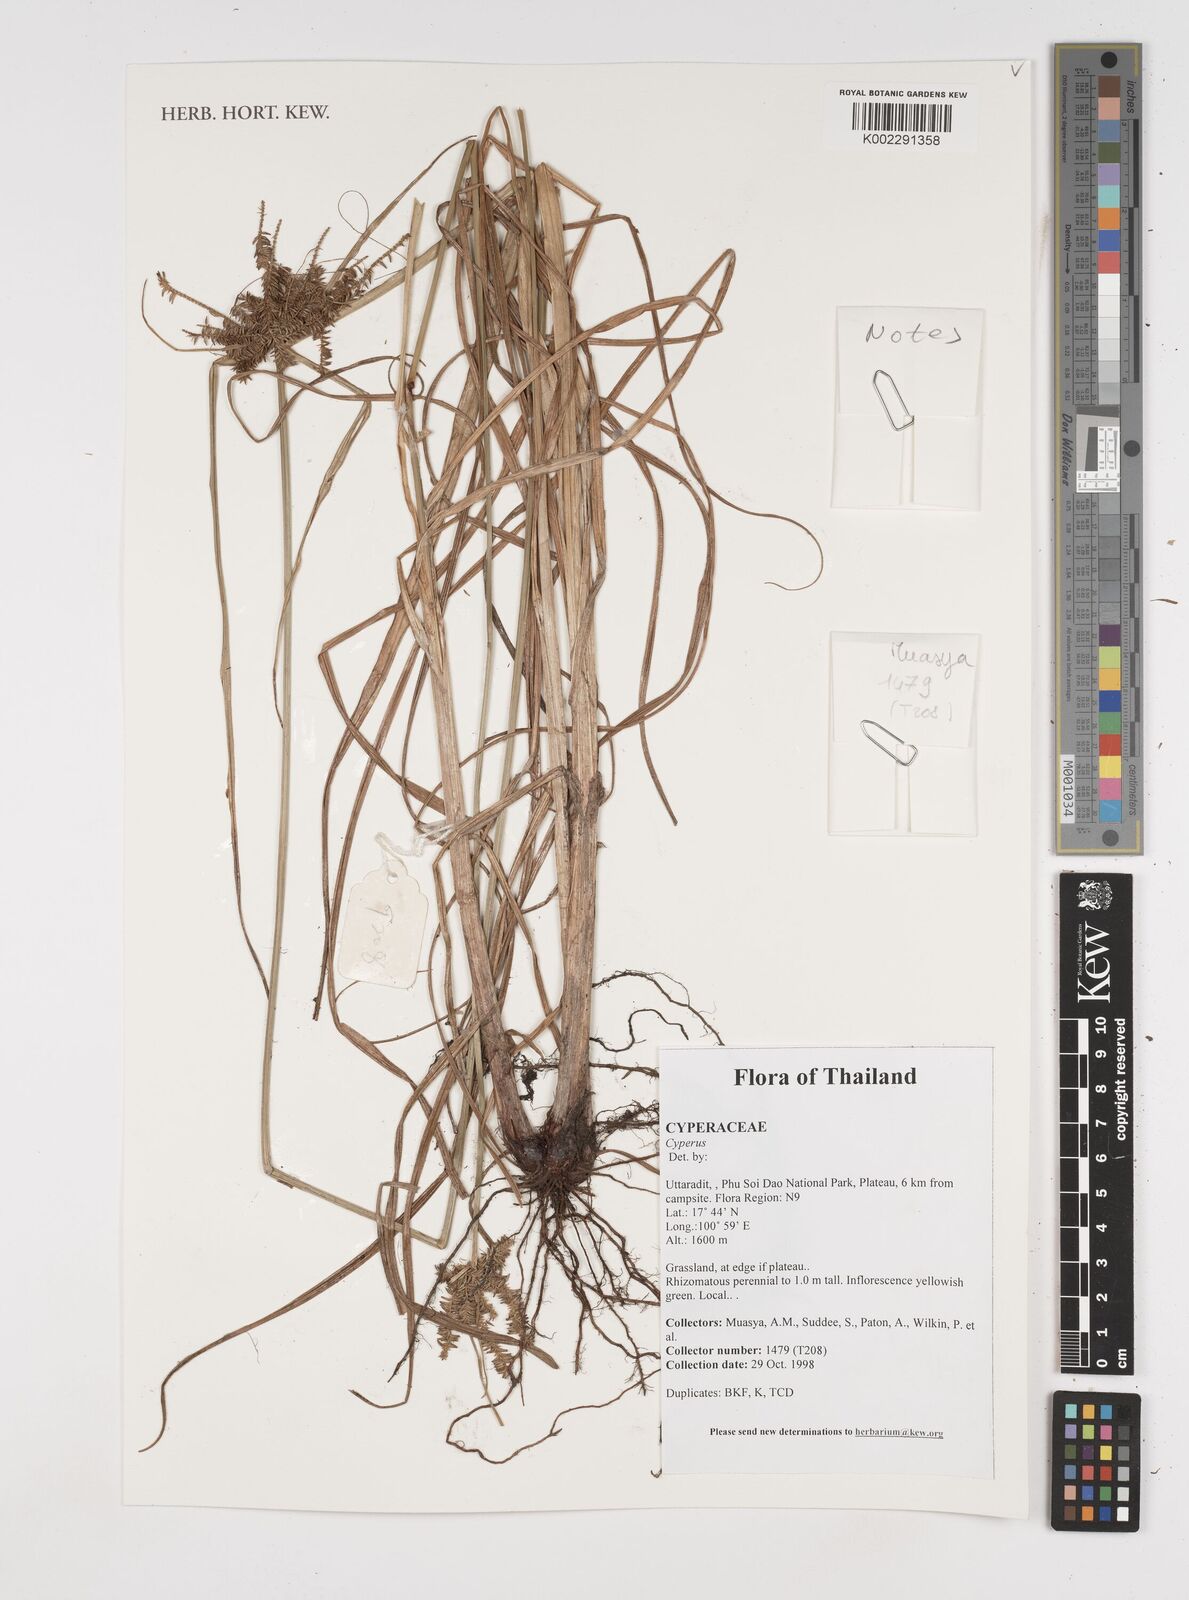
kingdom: Plantae
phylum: Tracheophyta
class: Liliopsida
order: Poales
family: Cyperaceae
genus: Cyperus
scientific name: Cyperus
